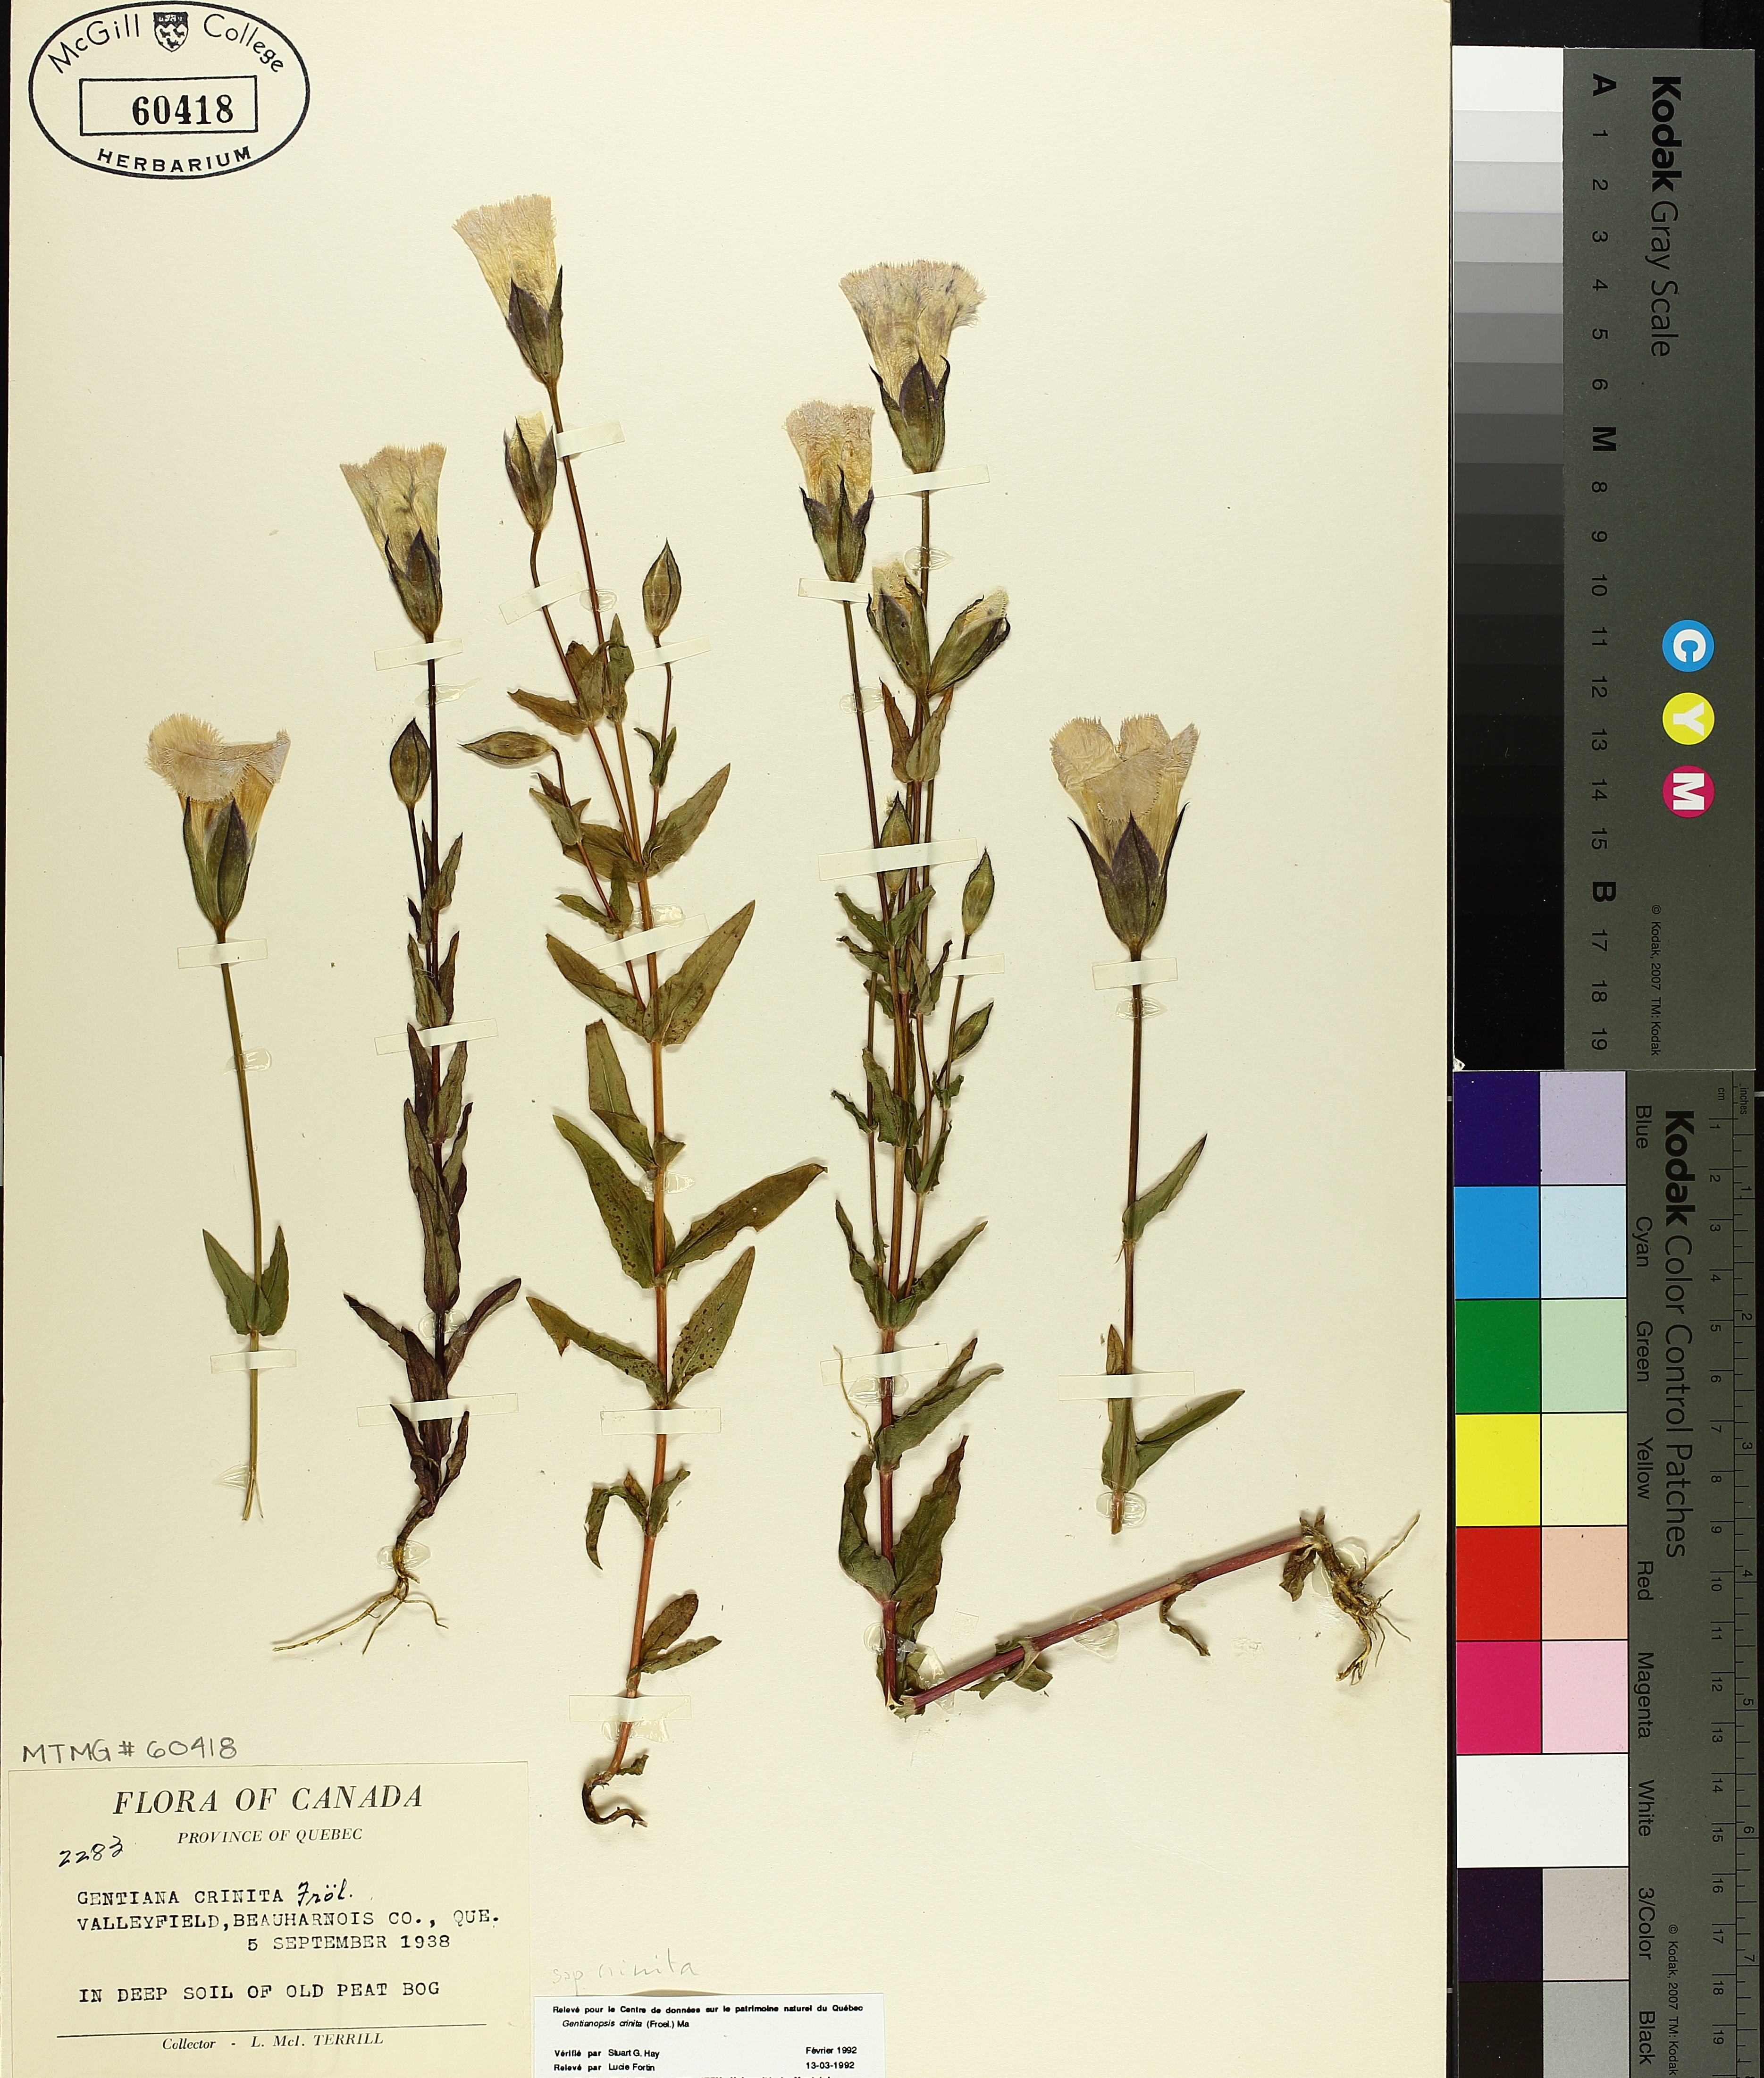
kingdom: Plantae
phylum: Tracheophyta
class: Magnoliopsida
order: Gentianales
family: Gentianaceae
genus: Gentianopsis
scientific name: Gentianopsis crinita
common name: Fringed-gentian
